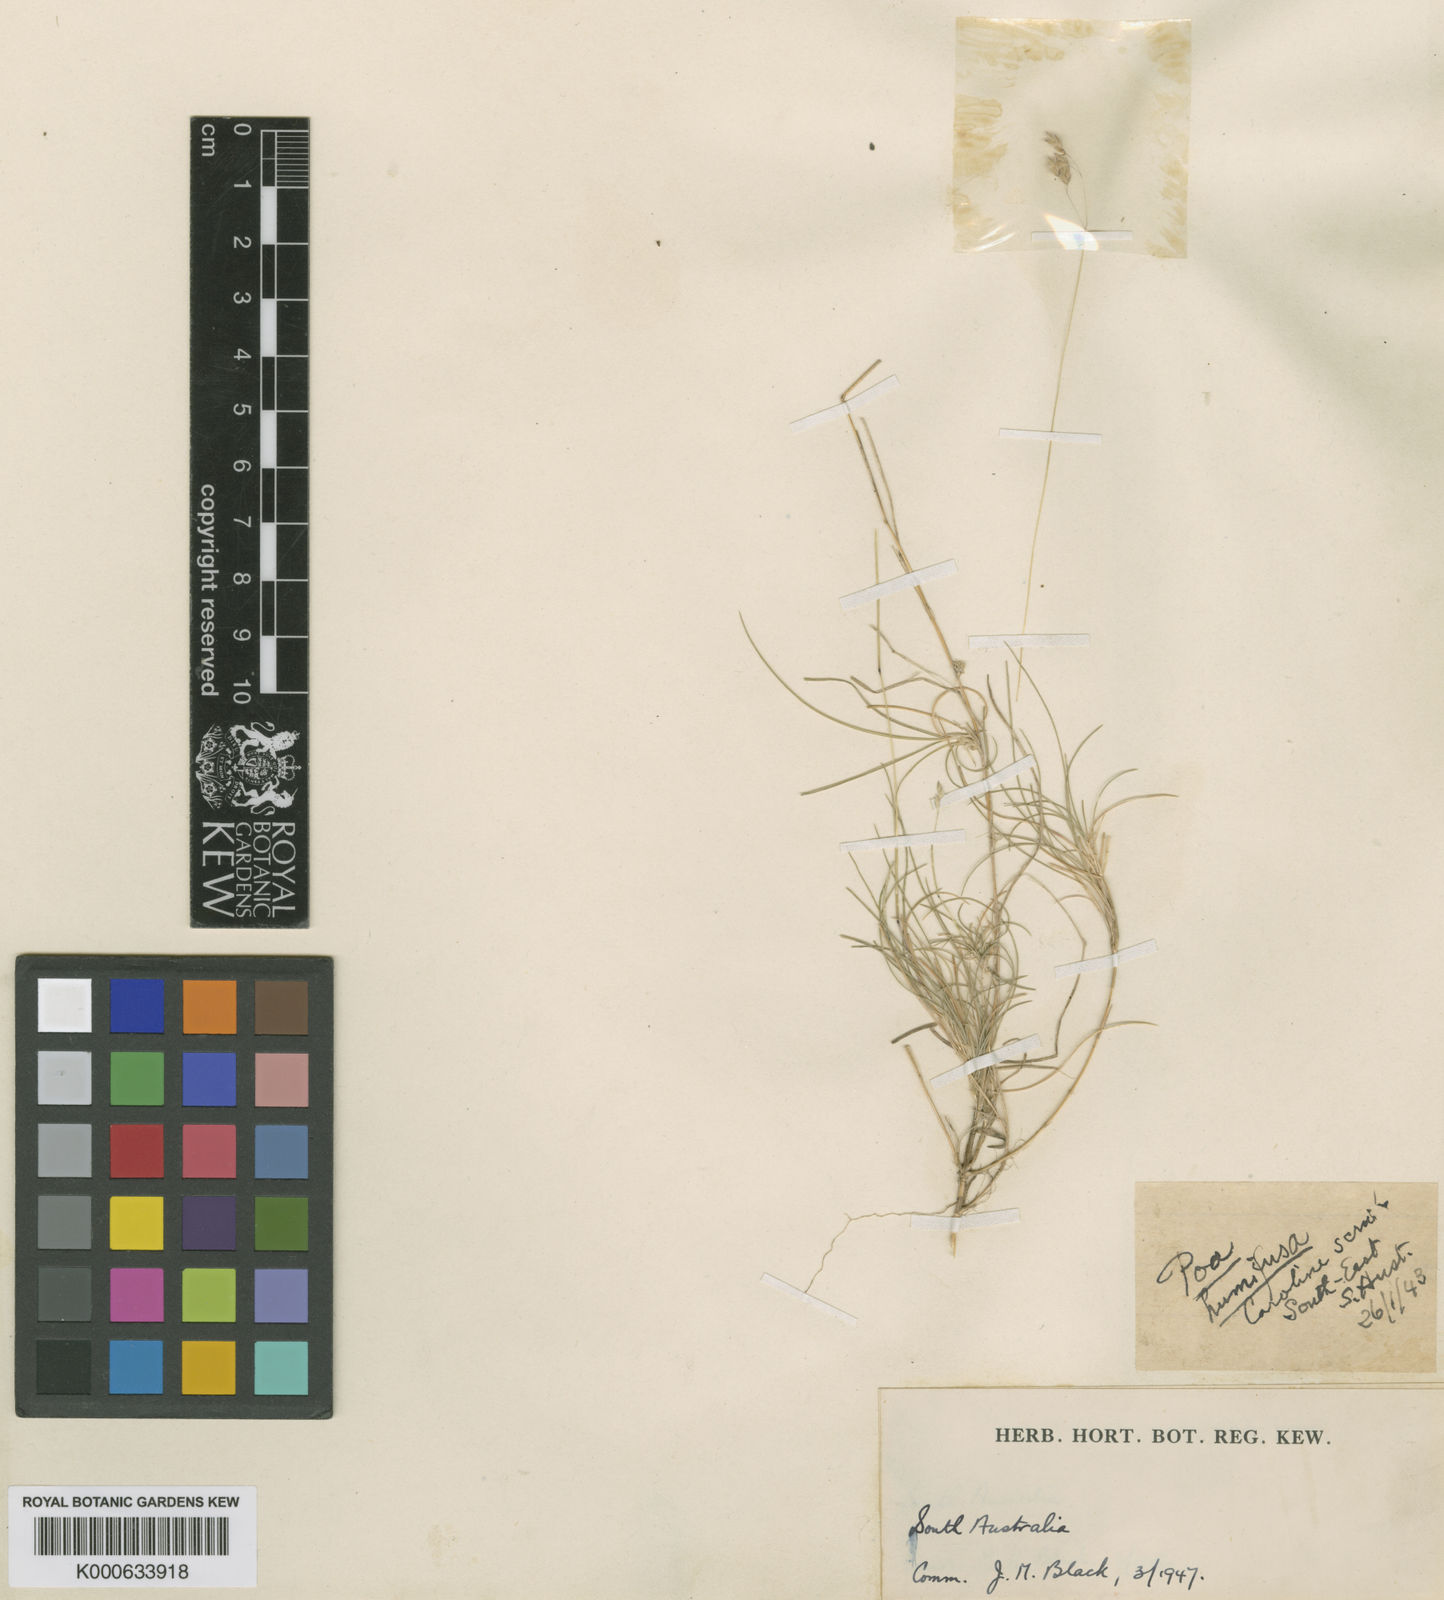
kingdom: Plantae
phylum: Tracheophyta
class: Liliopsida
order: Poales
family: Poaceae
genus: Poa
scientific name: Poa tenera
